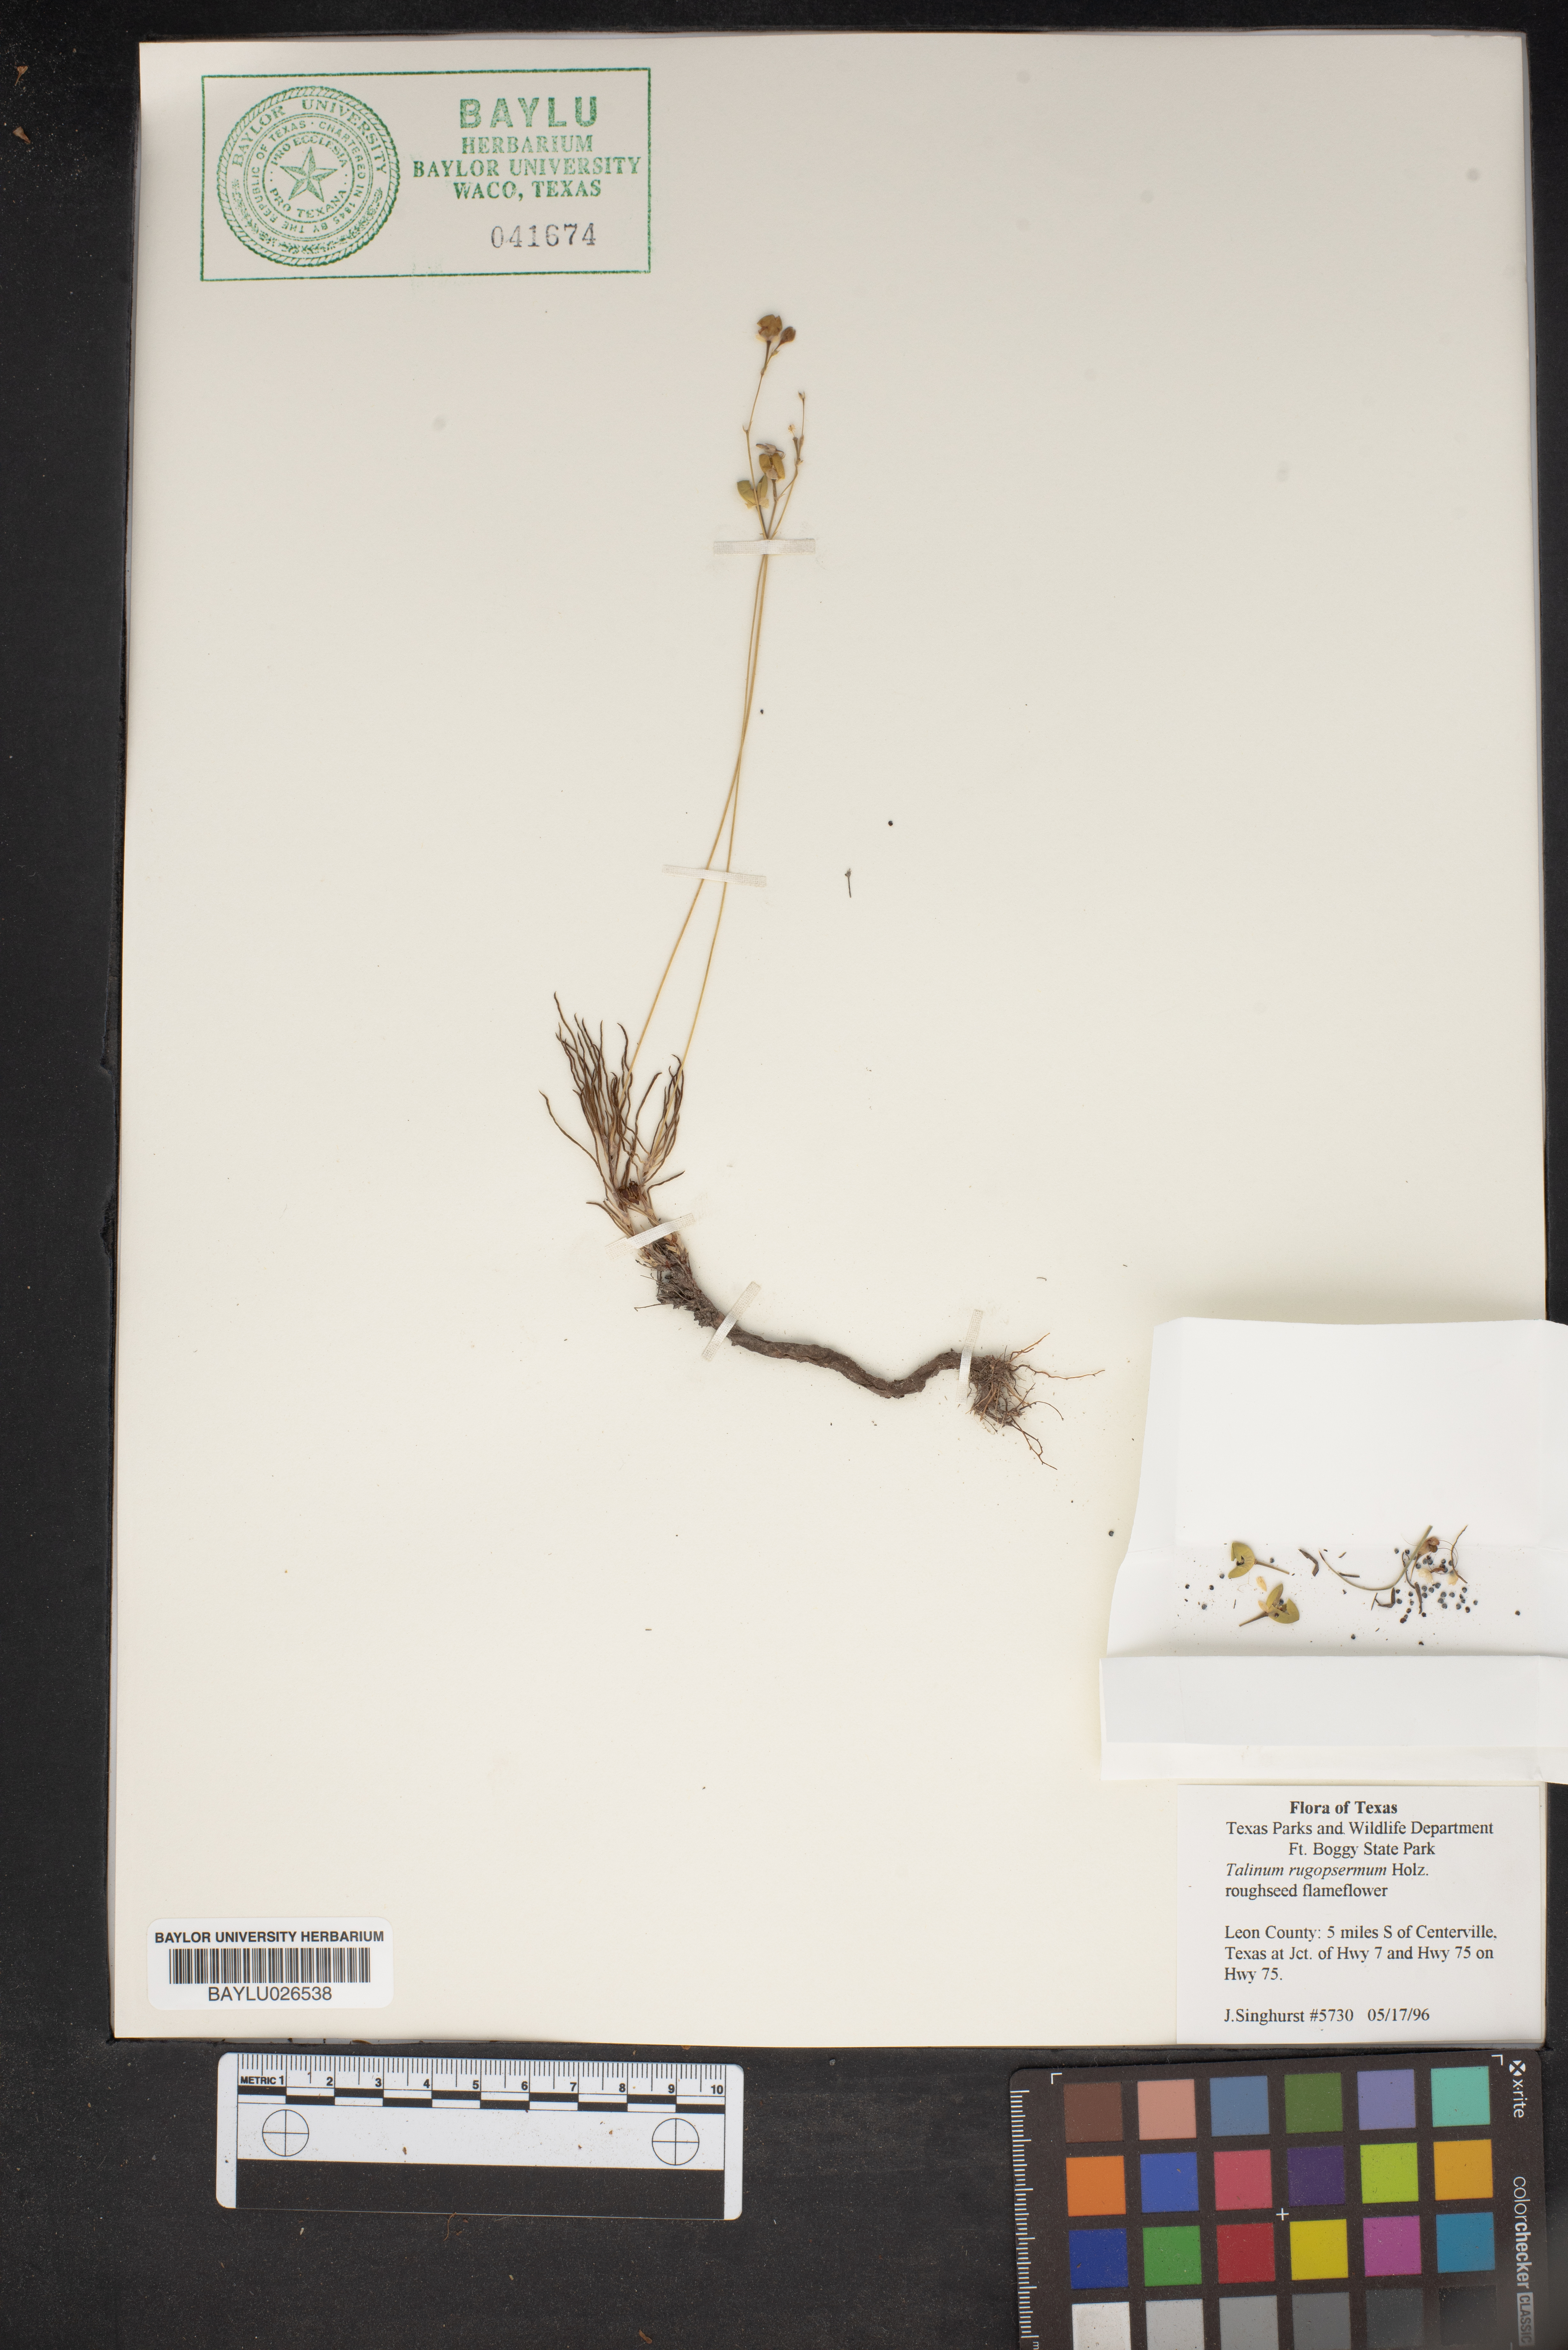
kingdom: Plantae
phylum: Tracheophyta
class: Magnoliopsida
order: Caryophyllales
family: Montiaceae
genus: Phemeranthus
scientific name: Phemeranthus rugospermus
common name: Prairie fameflower
